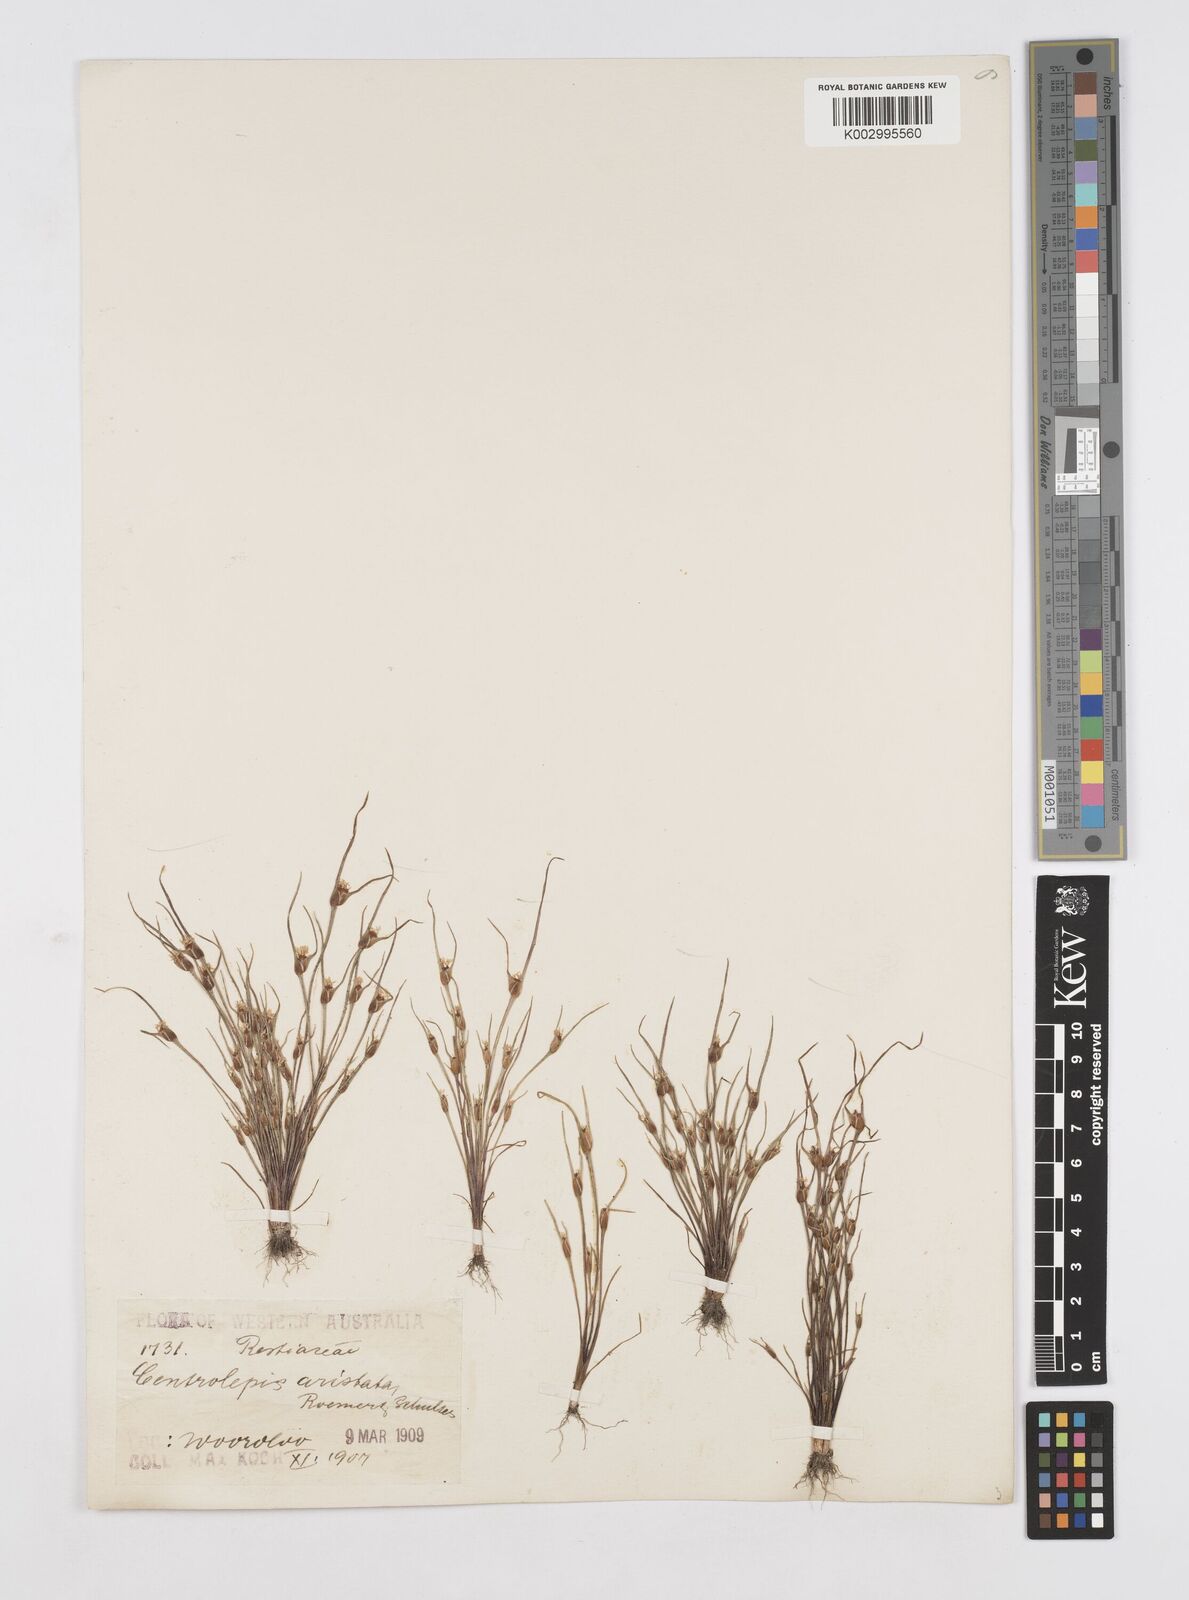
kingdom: Plantae
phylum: Tracheophyta
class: Liliopsida
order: Poales
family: Restionaceae
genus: Centrolepis
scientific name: Centrolepis aristata
